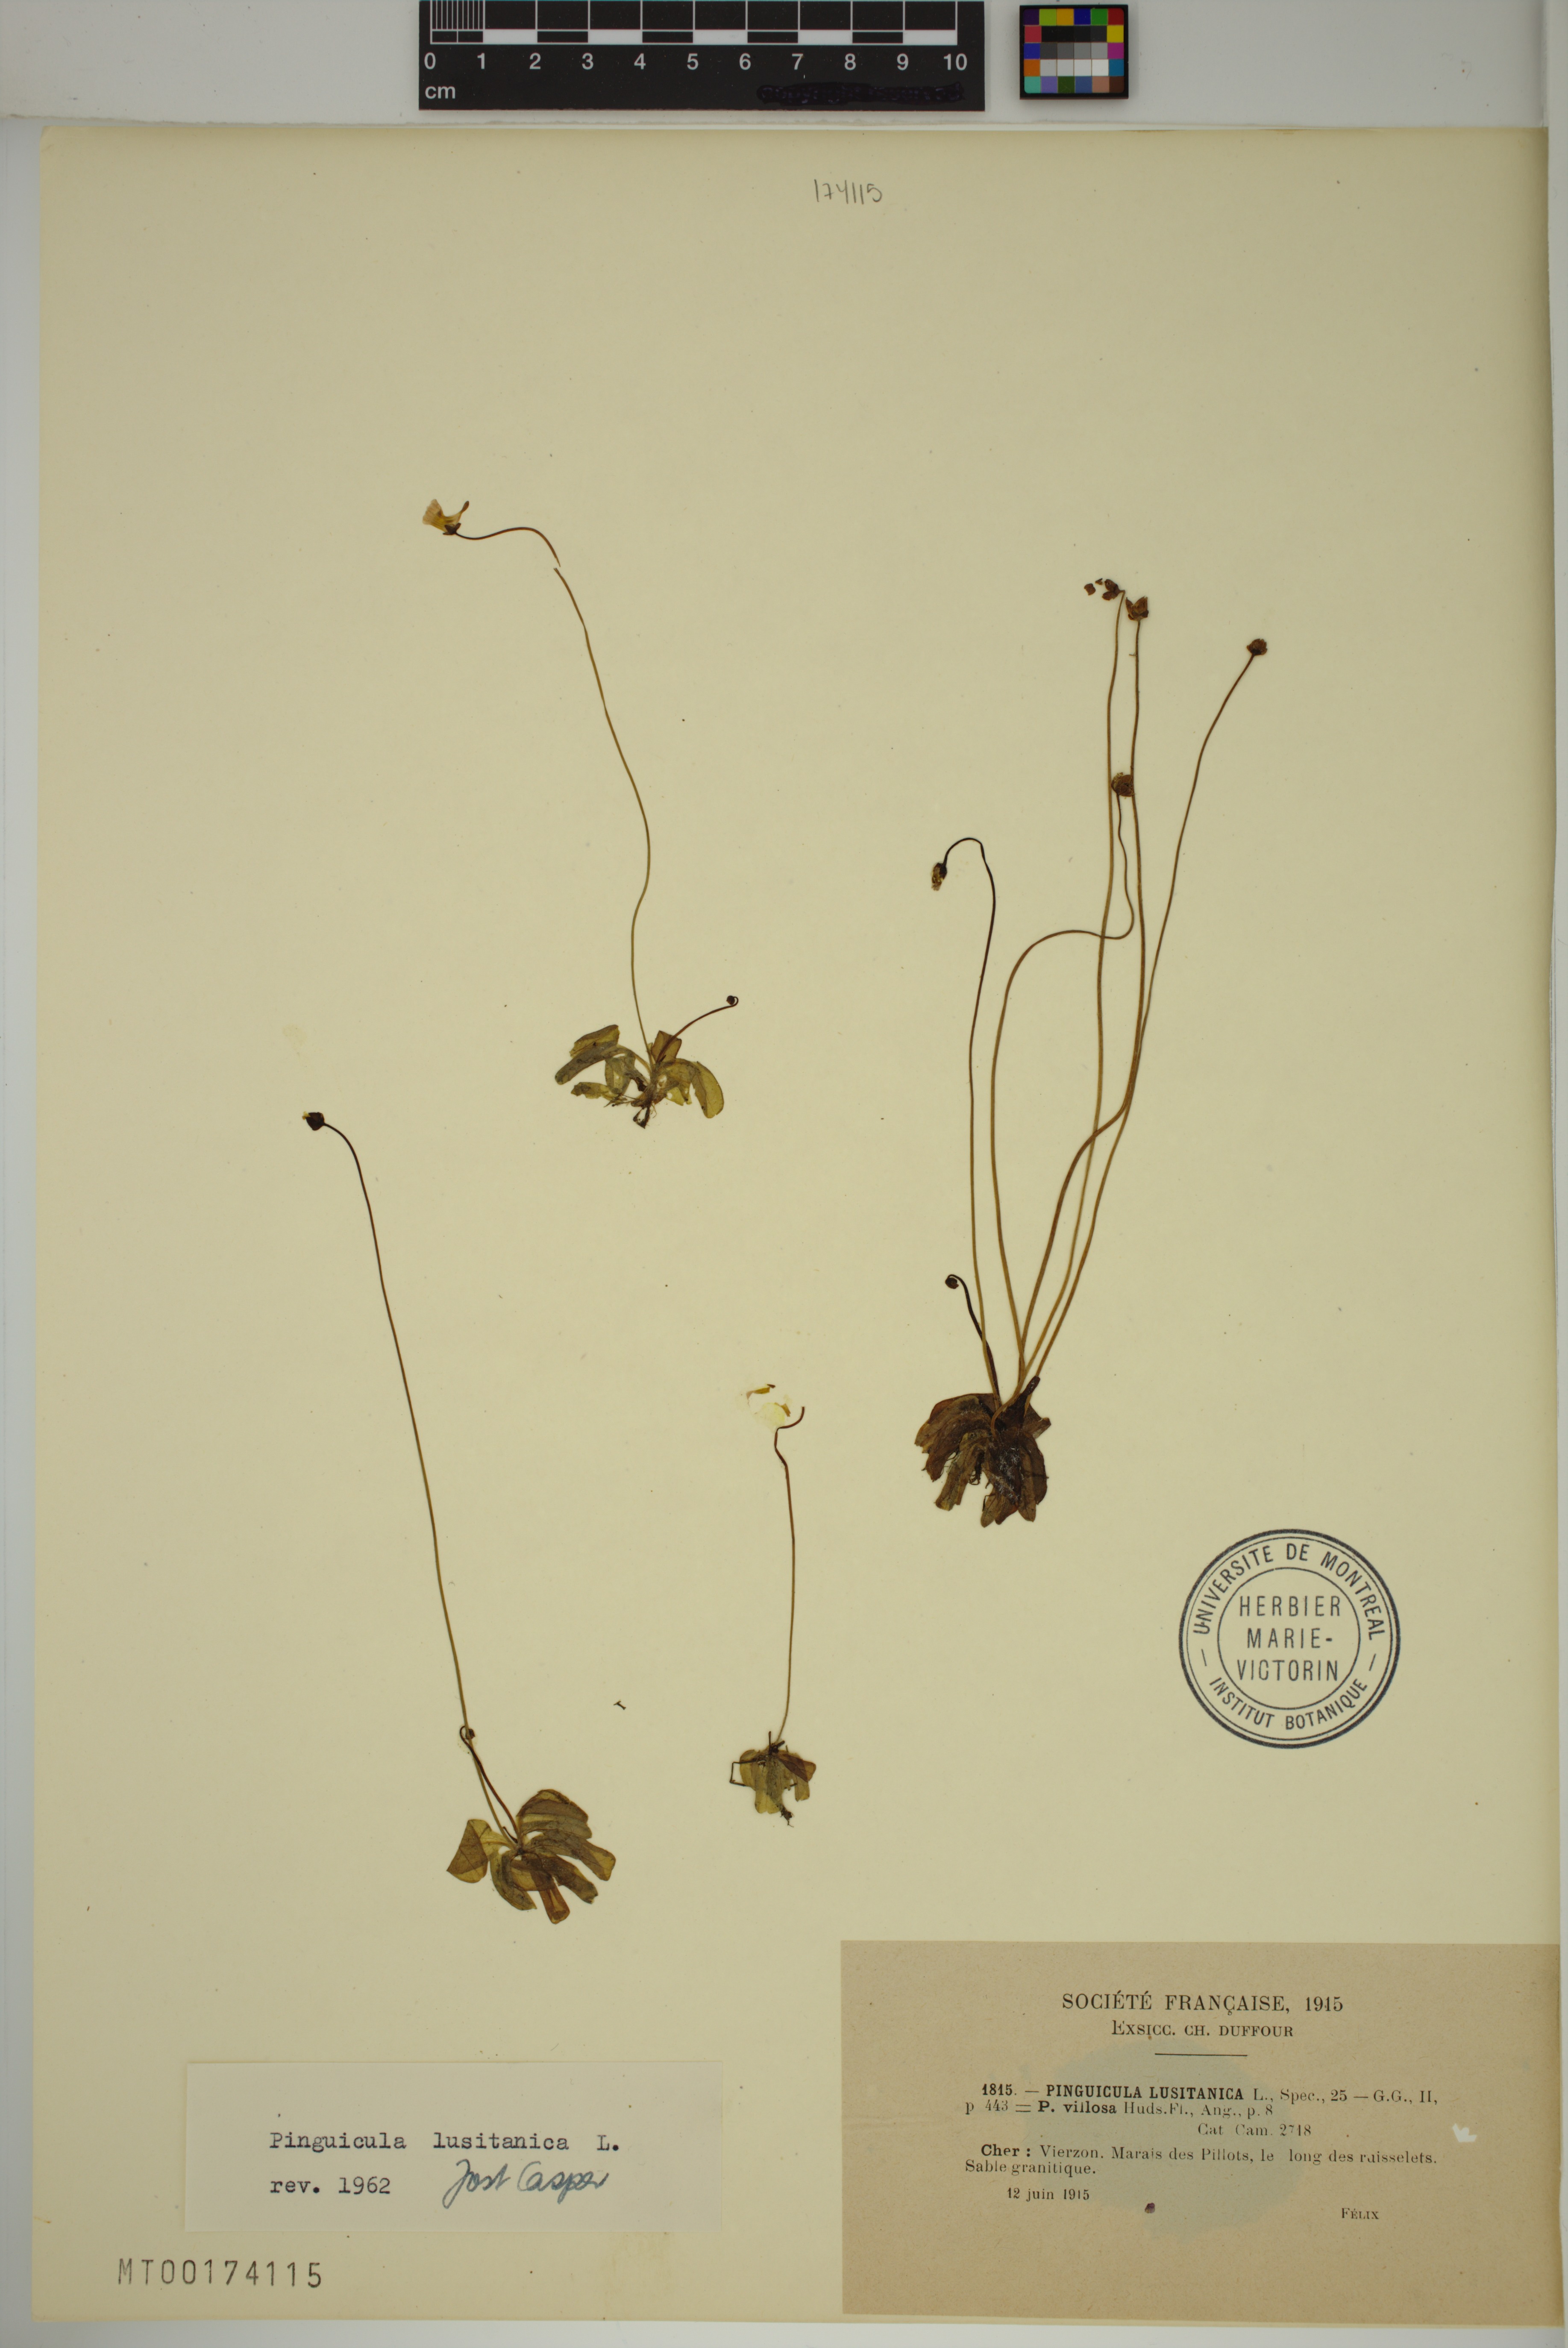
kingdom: Plantae
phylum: Tracheophyta
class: Magnoliopsida
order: Lamiales
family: Lentibulariaceae
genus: Pinguicula
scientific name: Pinguicula lusitanica
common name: Pale butterwort
